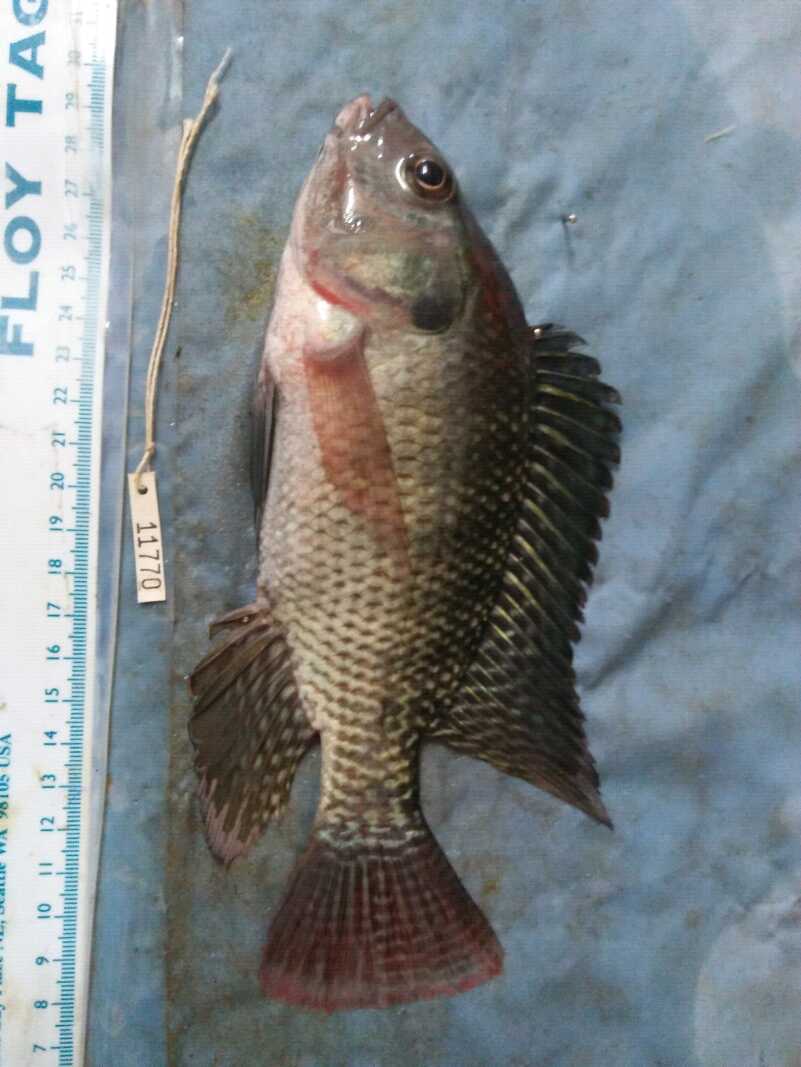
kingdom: Animalia
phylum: Chordata
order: Perciformes
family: Cichlidae
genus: Oreochromis
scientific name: Oreochromis niloticus
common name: Nile tilapia
